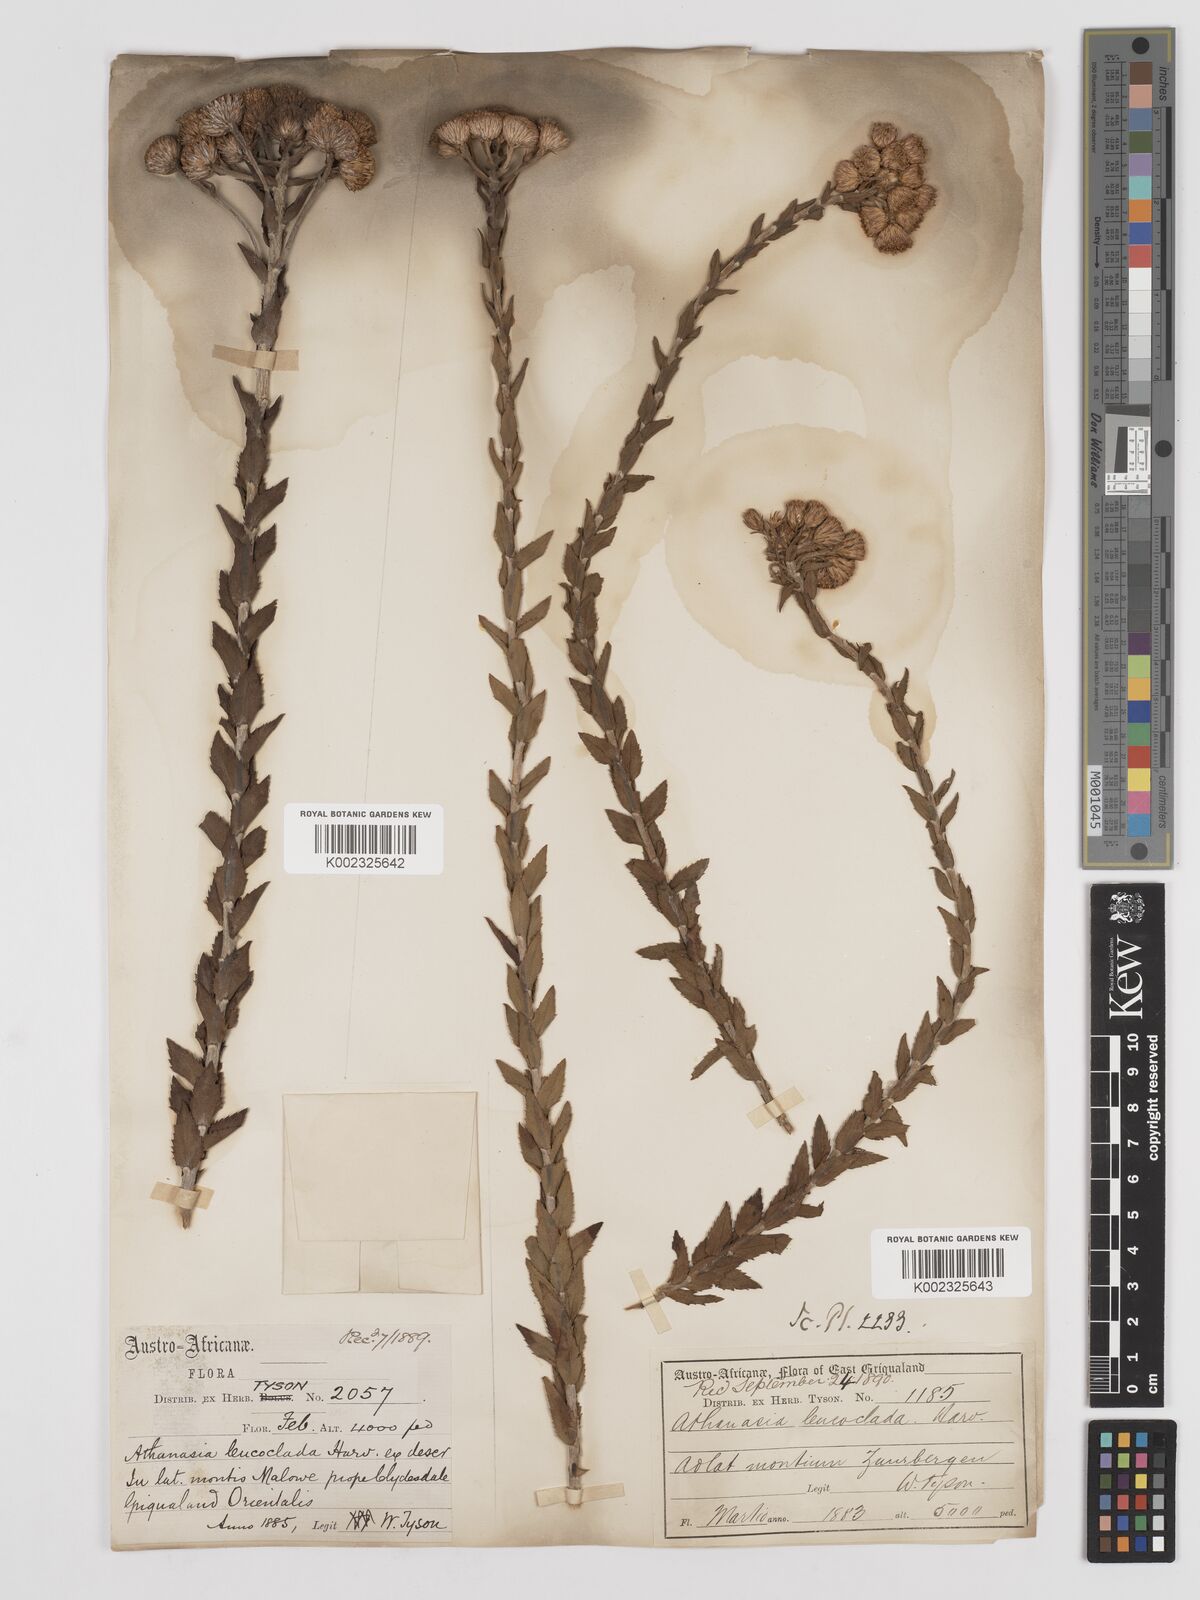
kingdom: Plantae
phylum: Tracheophyta
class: Magnoliopsida
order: Asterales
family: Asteraceae
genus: Inulanthera
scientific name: Inulanthera leucoclada
